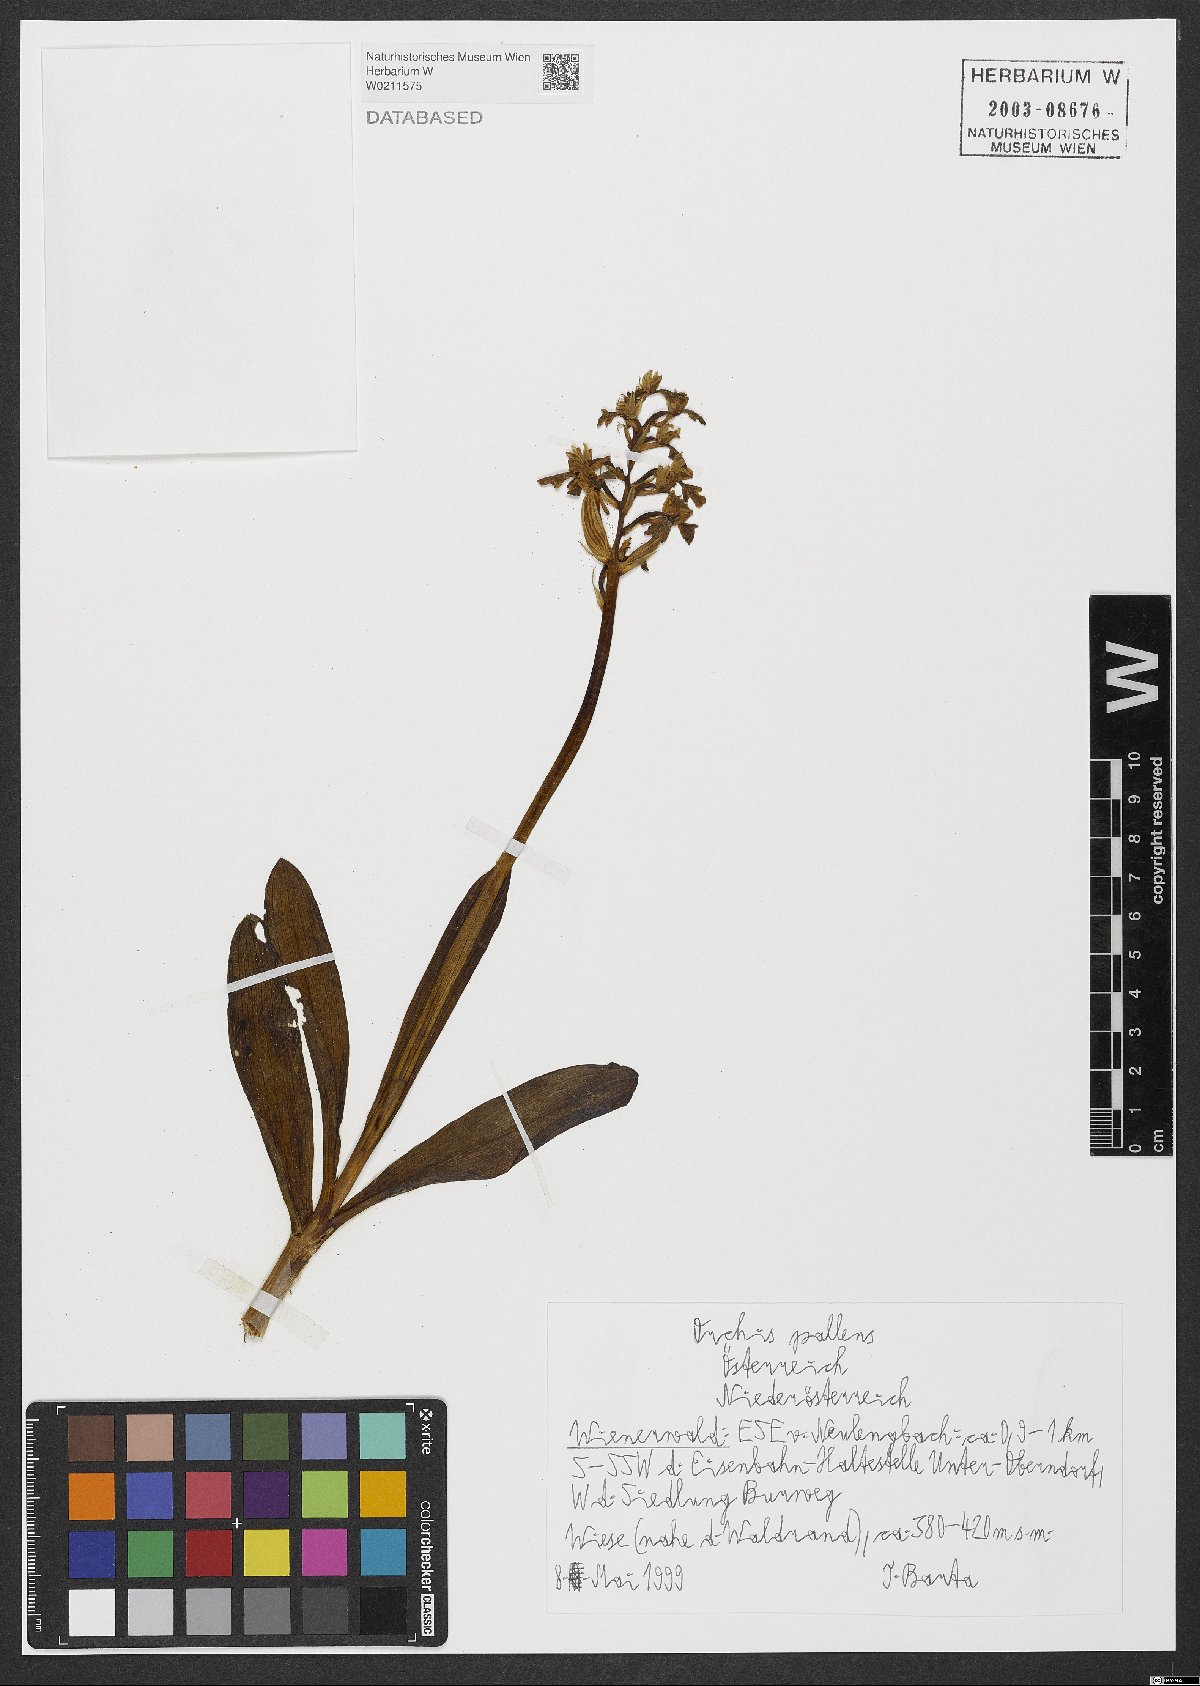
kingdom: Plantae
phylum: Tracheophyta
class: Liliopsida
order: Asparagales
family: Orchidaceae
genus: Orchis
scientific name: Orchis pallens
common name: Pale-flowered orchid
